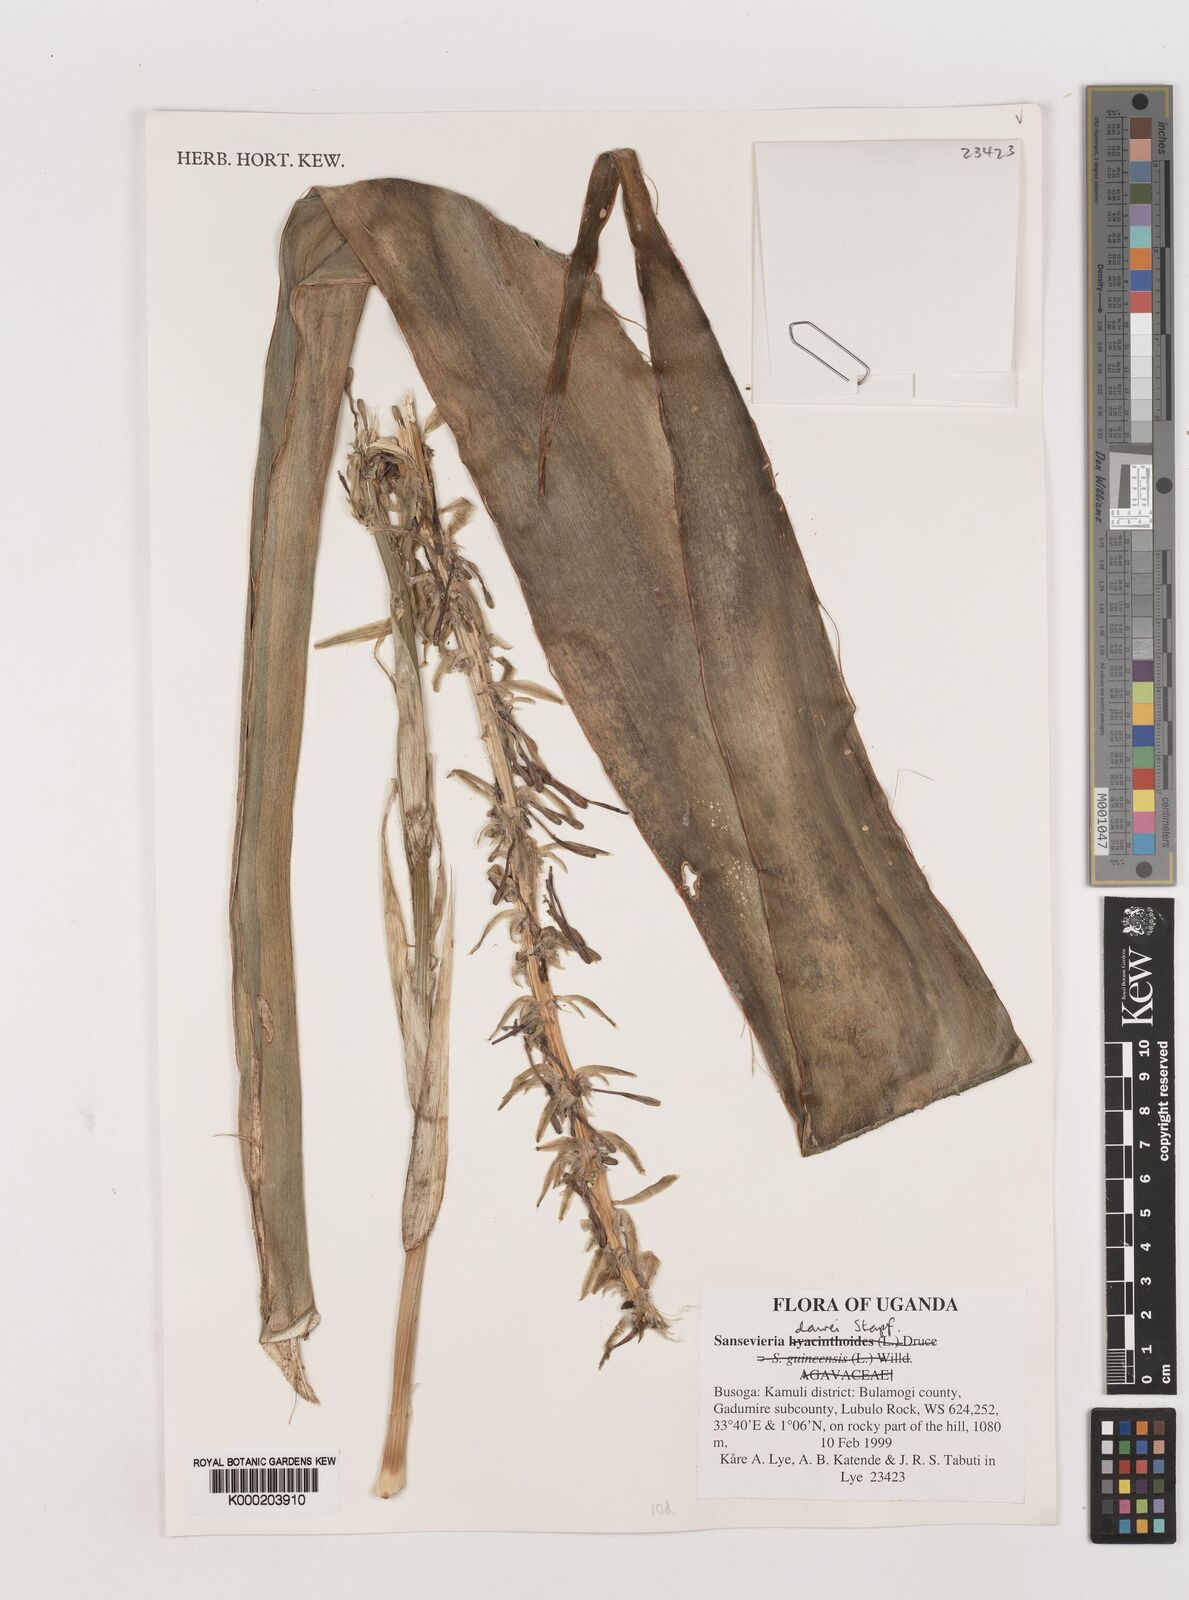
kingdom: Plantae
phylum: Tracheophyta
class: Liliopsida
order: Asparagales
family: Asparagaceae
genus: Dracaena
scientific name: Dracaena dawei
